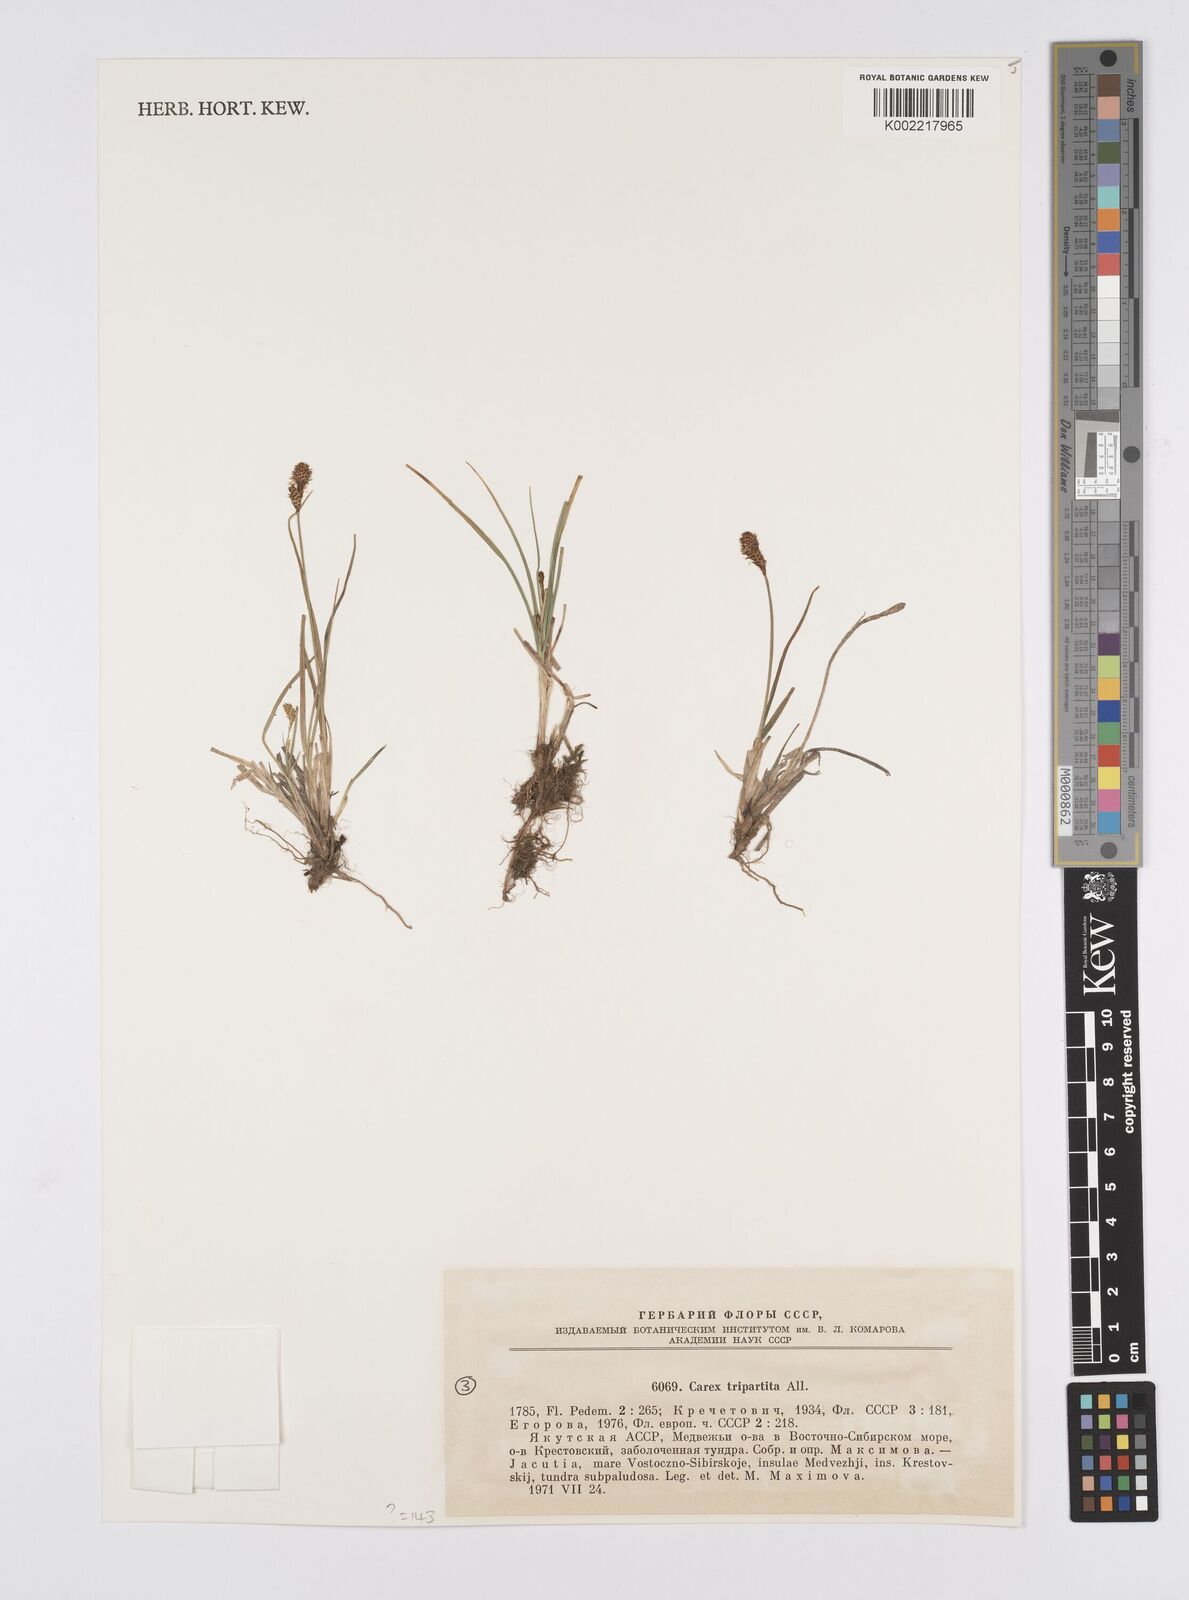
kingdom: Plantae
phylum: Tracheophyta
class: Liliopsida
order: Poales
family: Cyperaceae
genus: Carex
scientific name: Carex curvula
